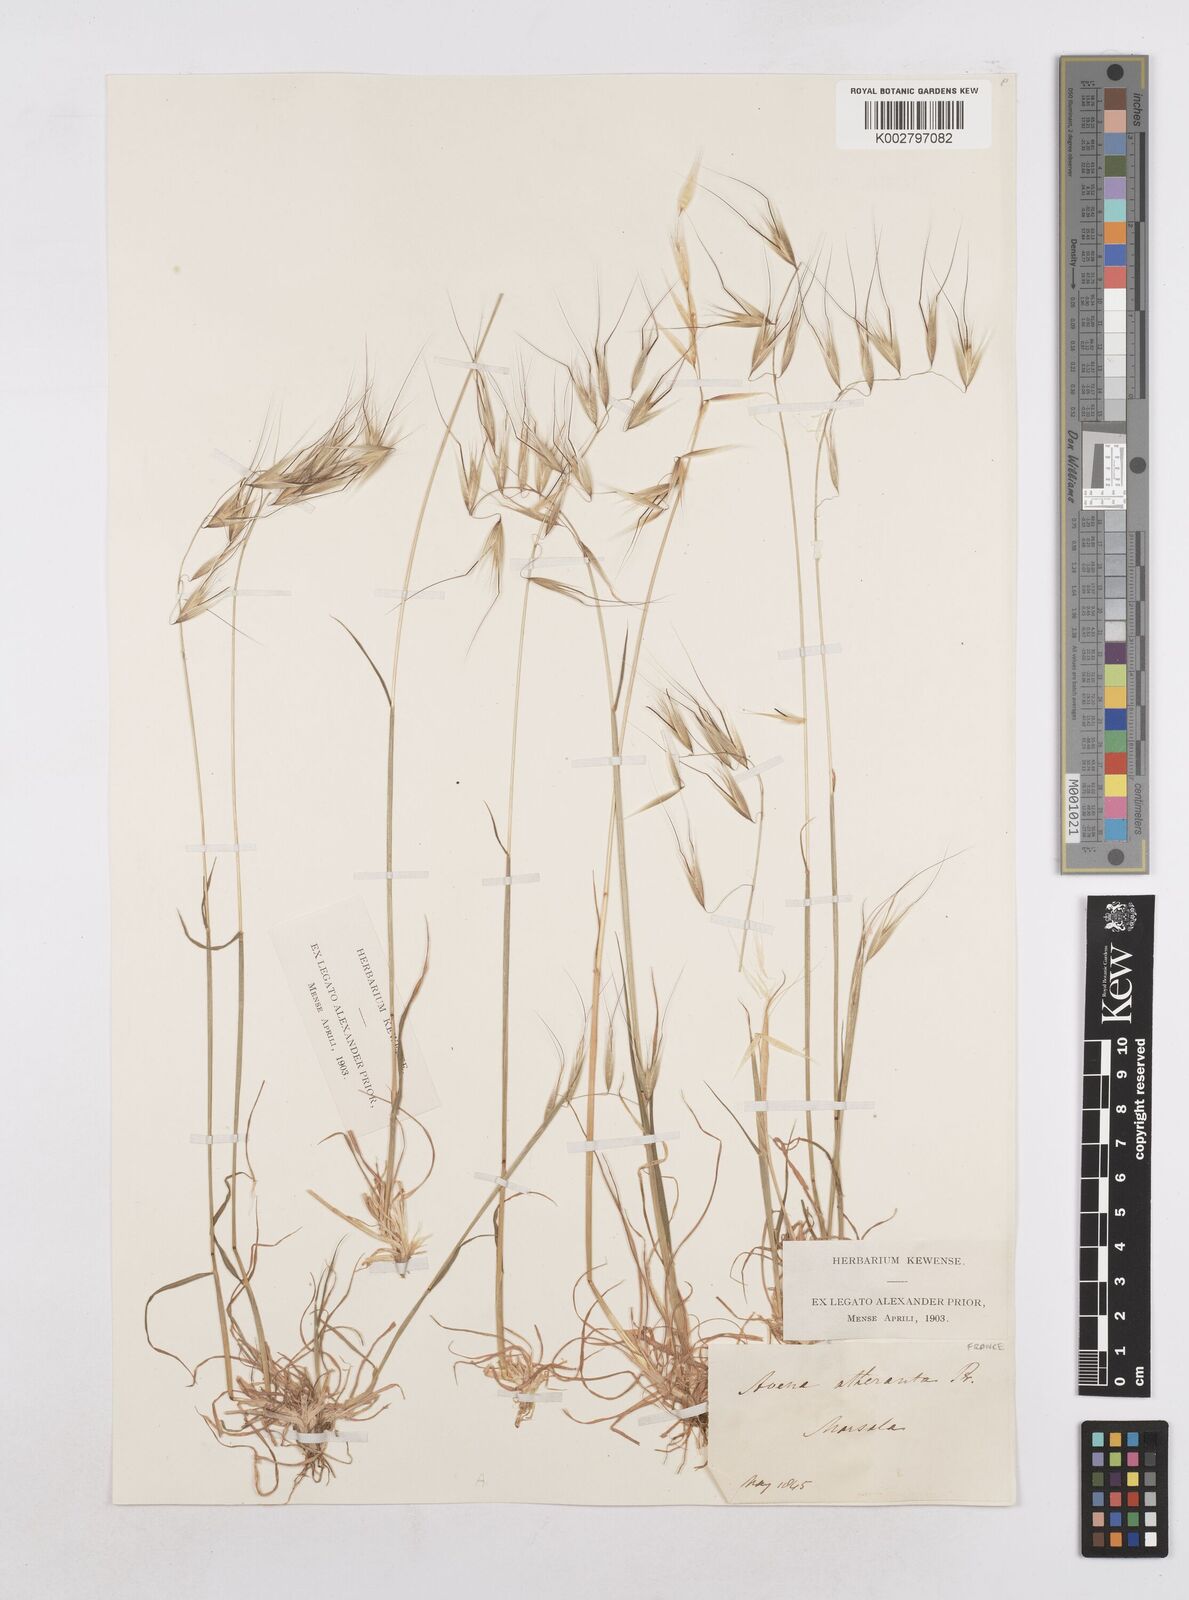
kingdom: Plantae
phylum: Tracheophyta
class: Liliopsida
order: Poales
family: Poaceae
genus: Avena
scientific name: Avena
